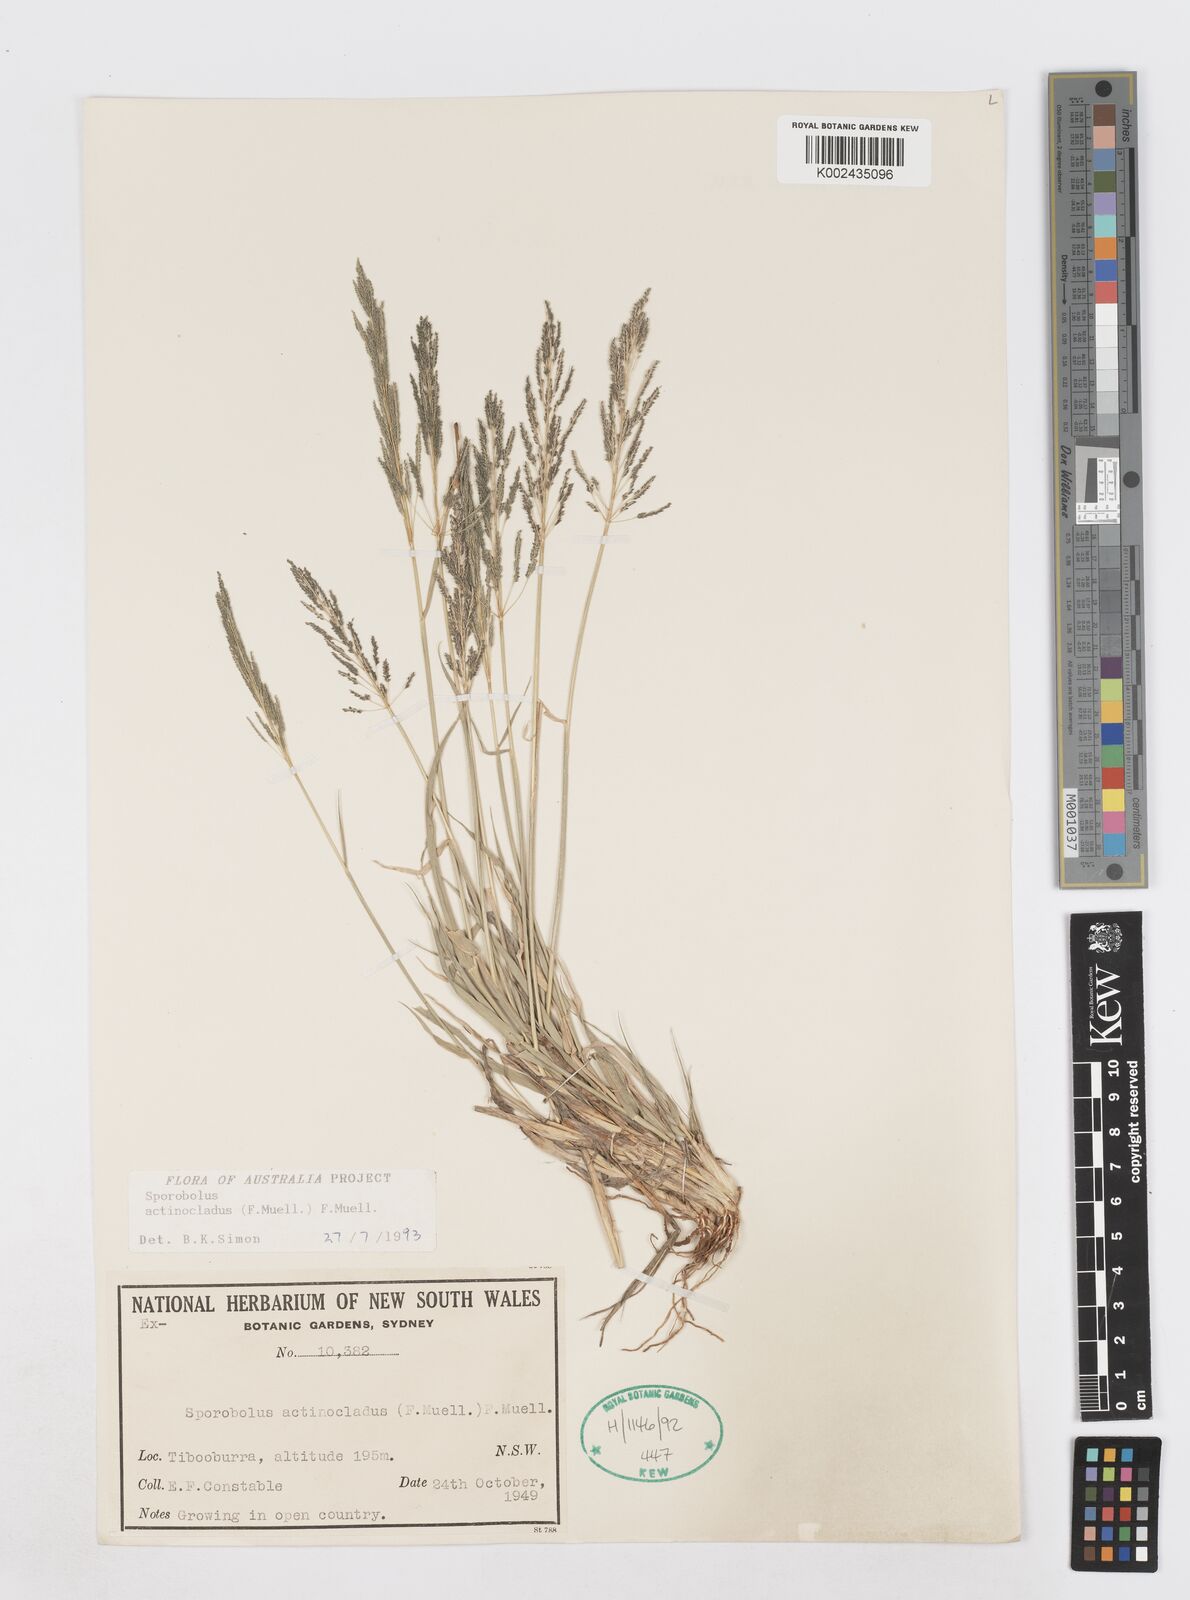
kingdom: Plantae
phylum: Tracheophyta
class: Liliopsida
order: Poales
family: Poaceae
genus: Sporobolus
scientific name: Sporobolus actinocladus
